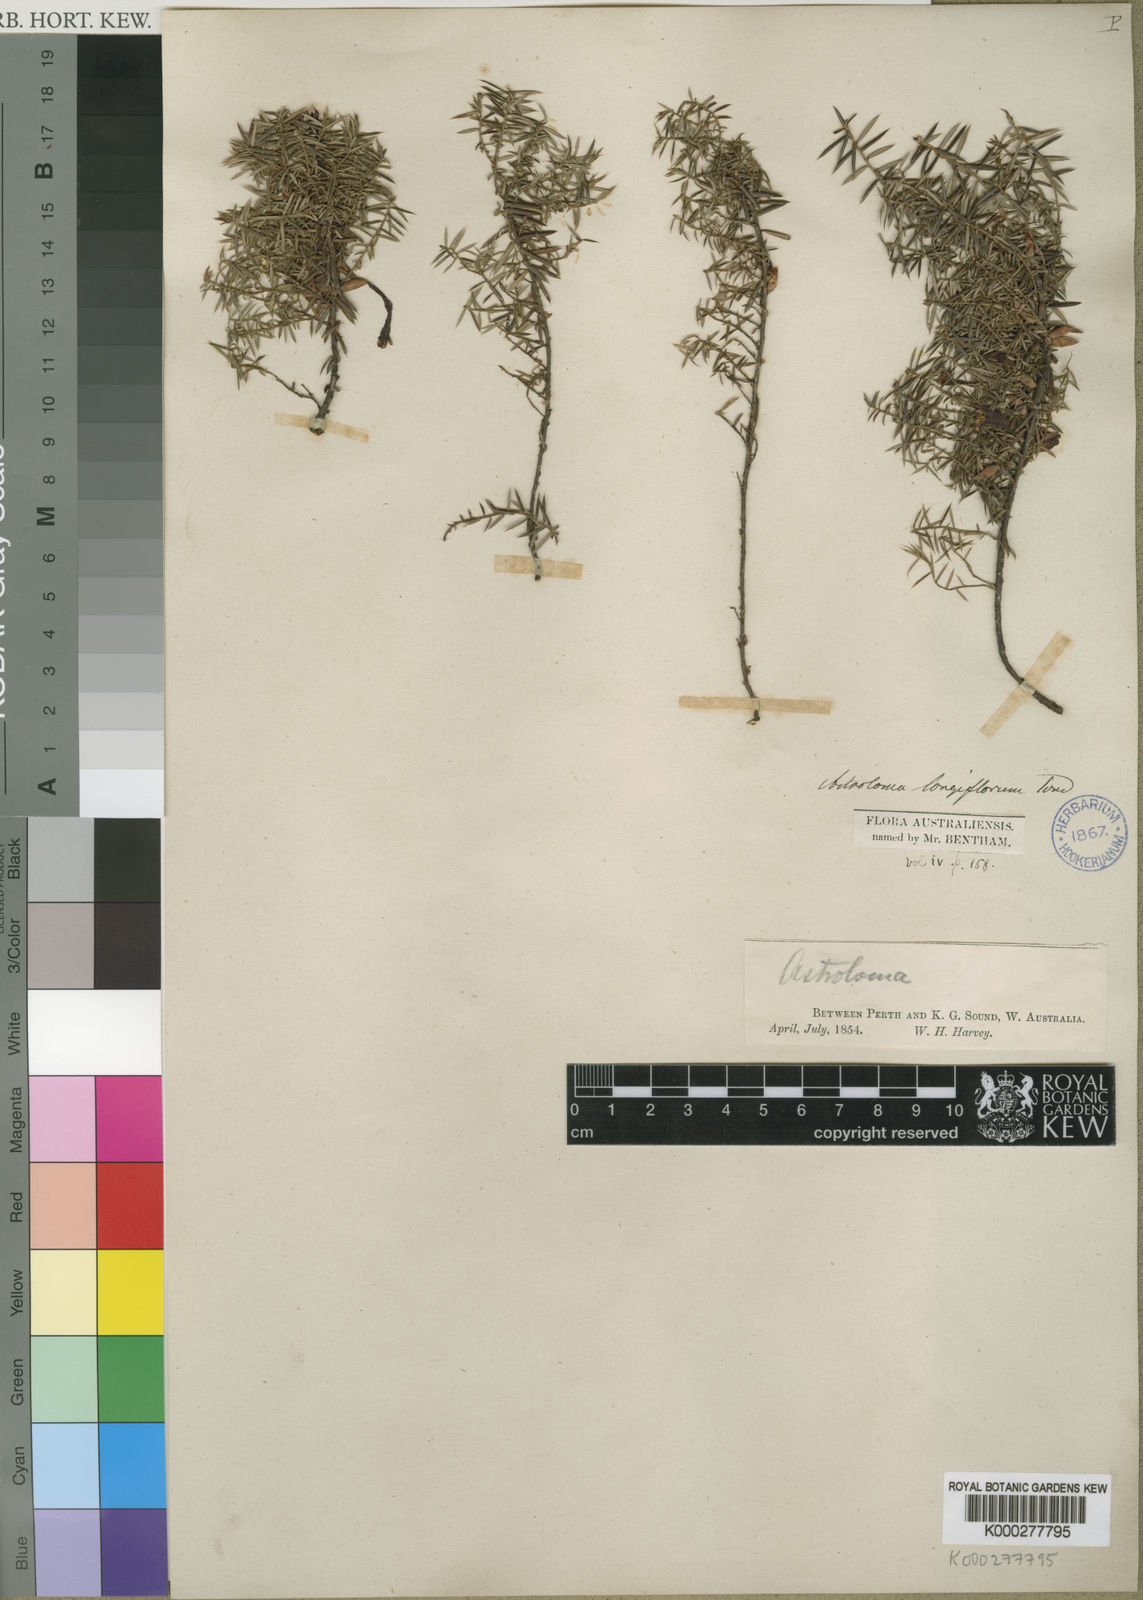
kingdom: Plantae
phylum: Tracheophyta
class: Magnoliopsida
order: Ericales
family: Ericaceae
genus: Styphelia
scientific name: Styphelia discolor
